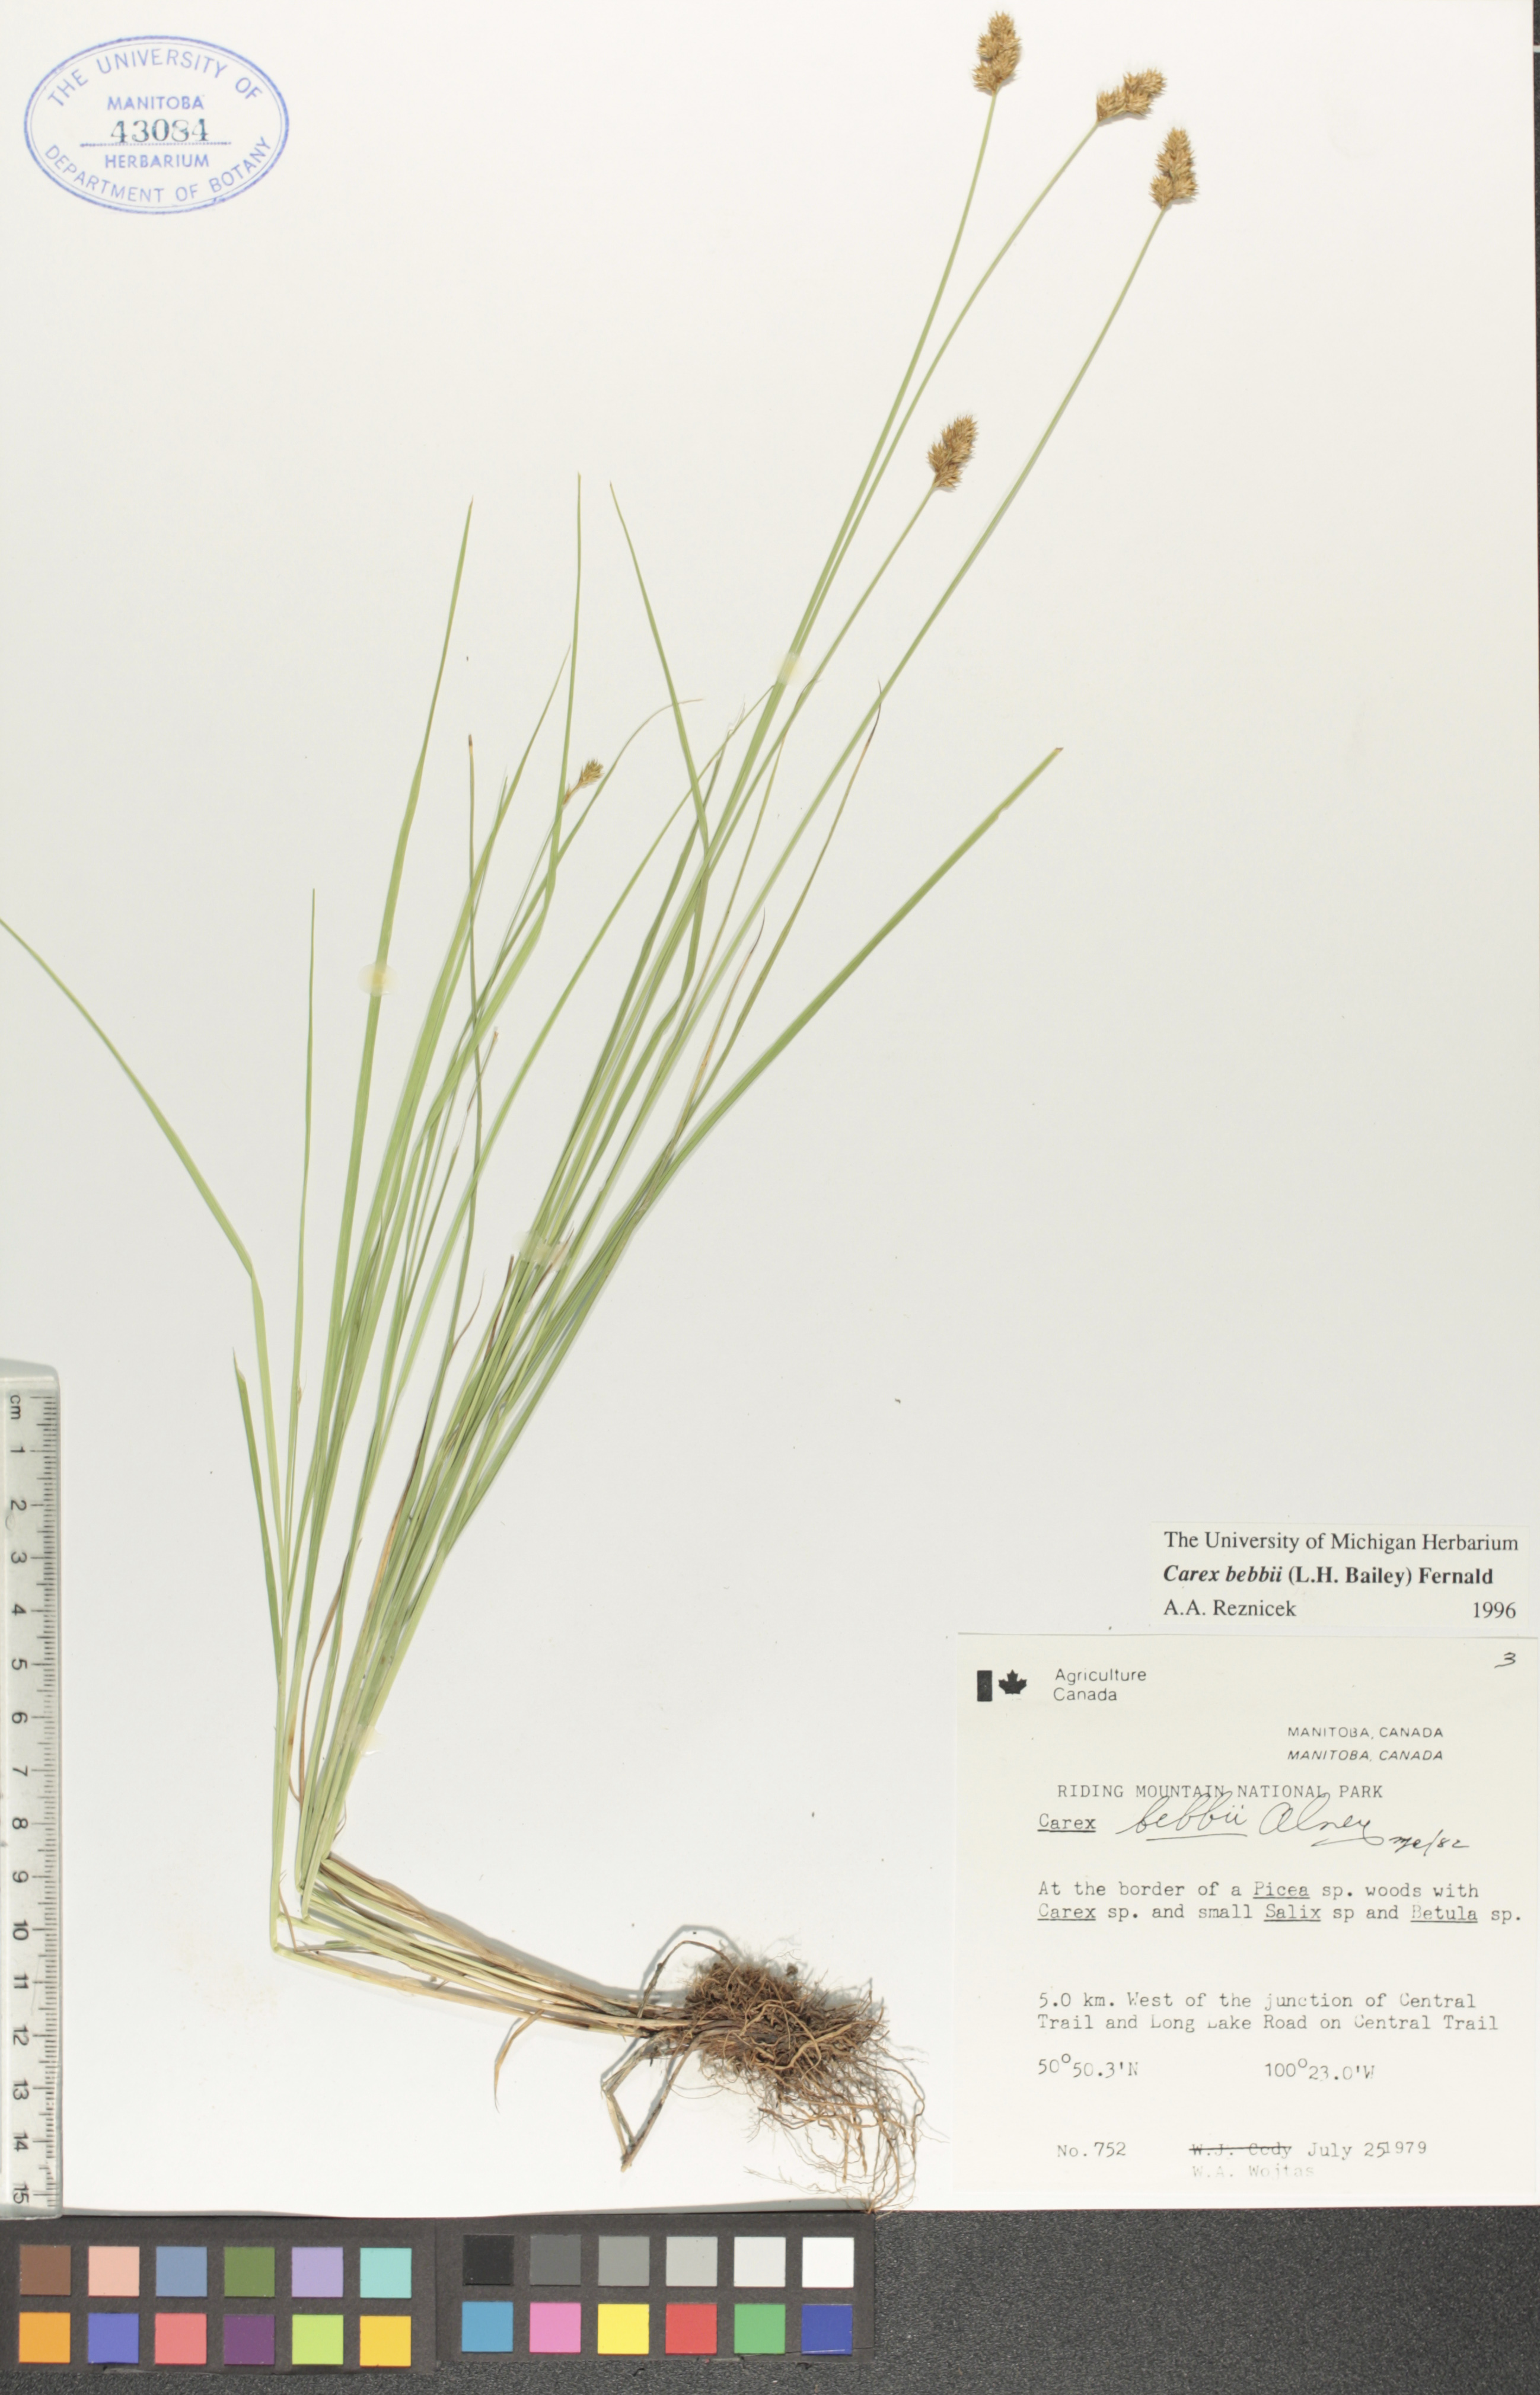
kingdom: Plantae
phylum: Tracheophyta
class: Liliopsida
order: Poales
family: Cyperaceae
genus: Carex
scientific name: Carex bebbii
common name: Bebb's sedge
